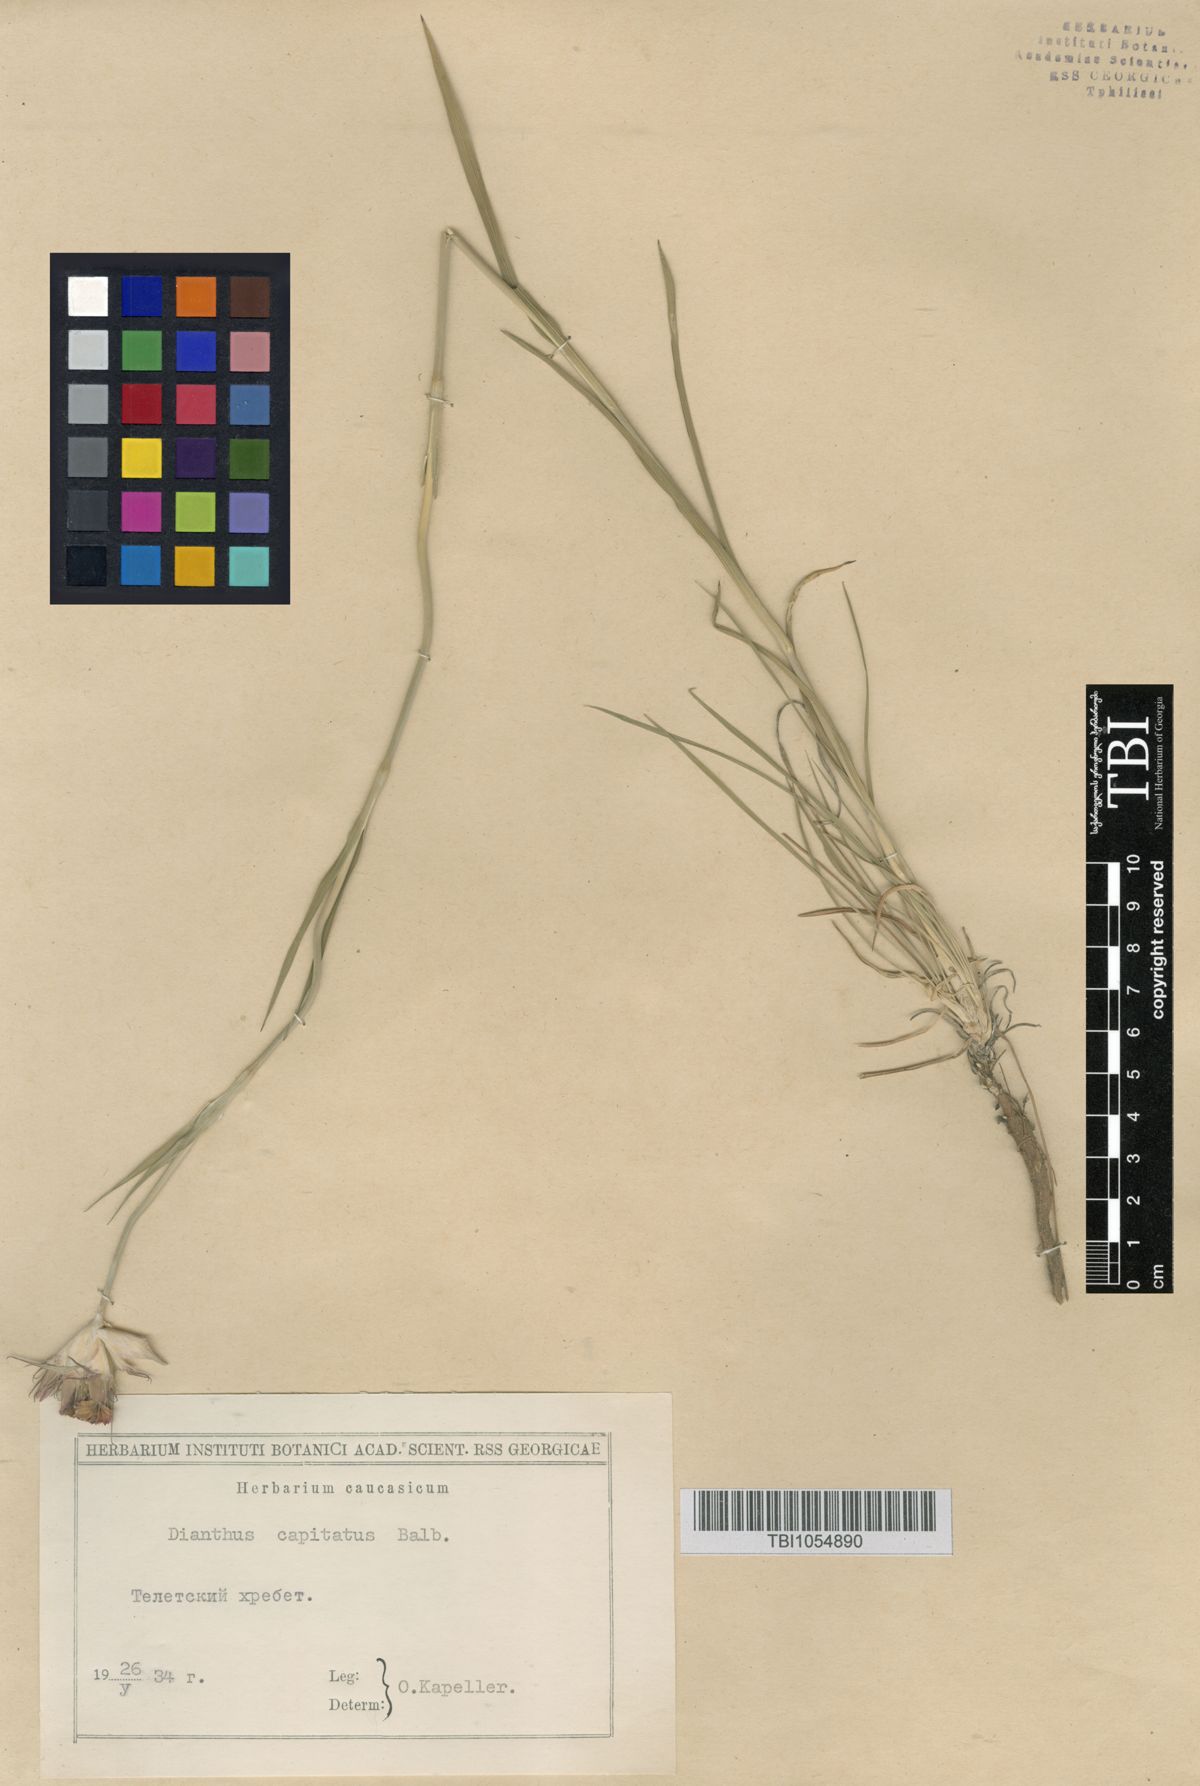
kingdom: Plantae
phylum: Tracheophyta
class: Magnoliopsida
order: Caryophyllales
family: Caryophyllaceae
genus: Dianthus
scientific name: Dianthus capitatus
